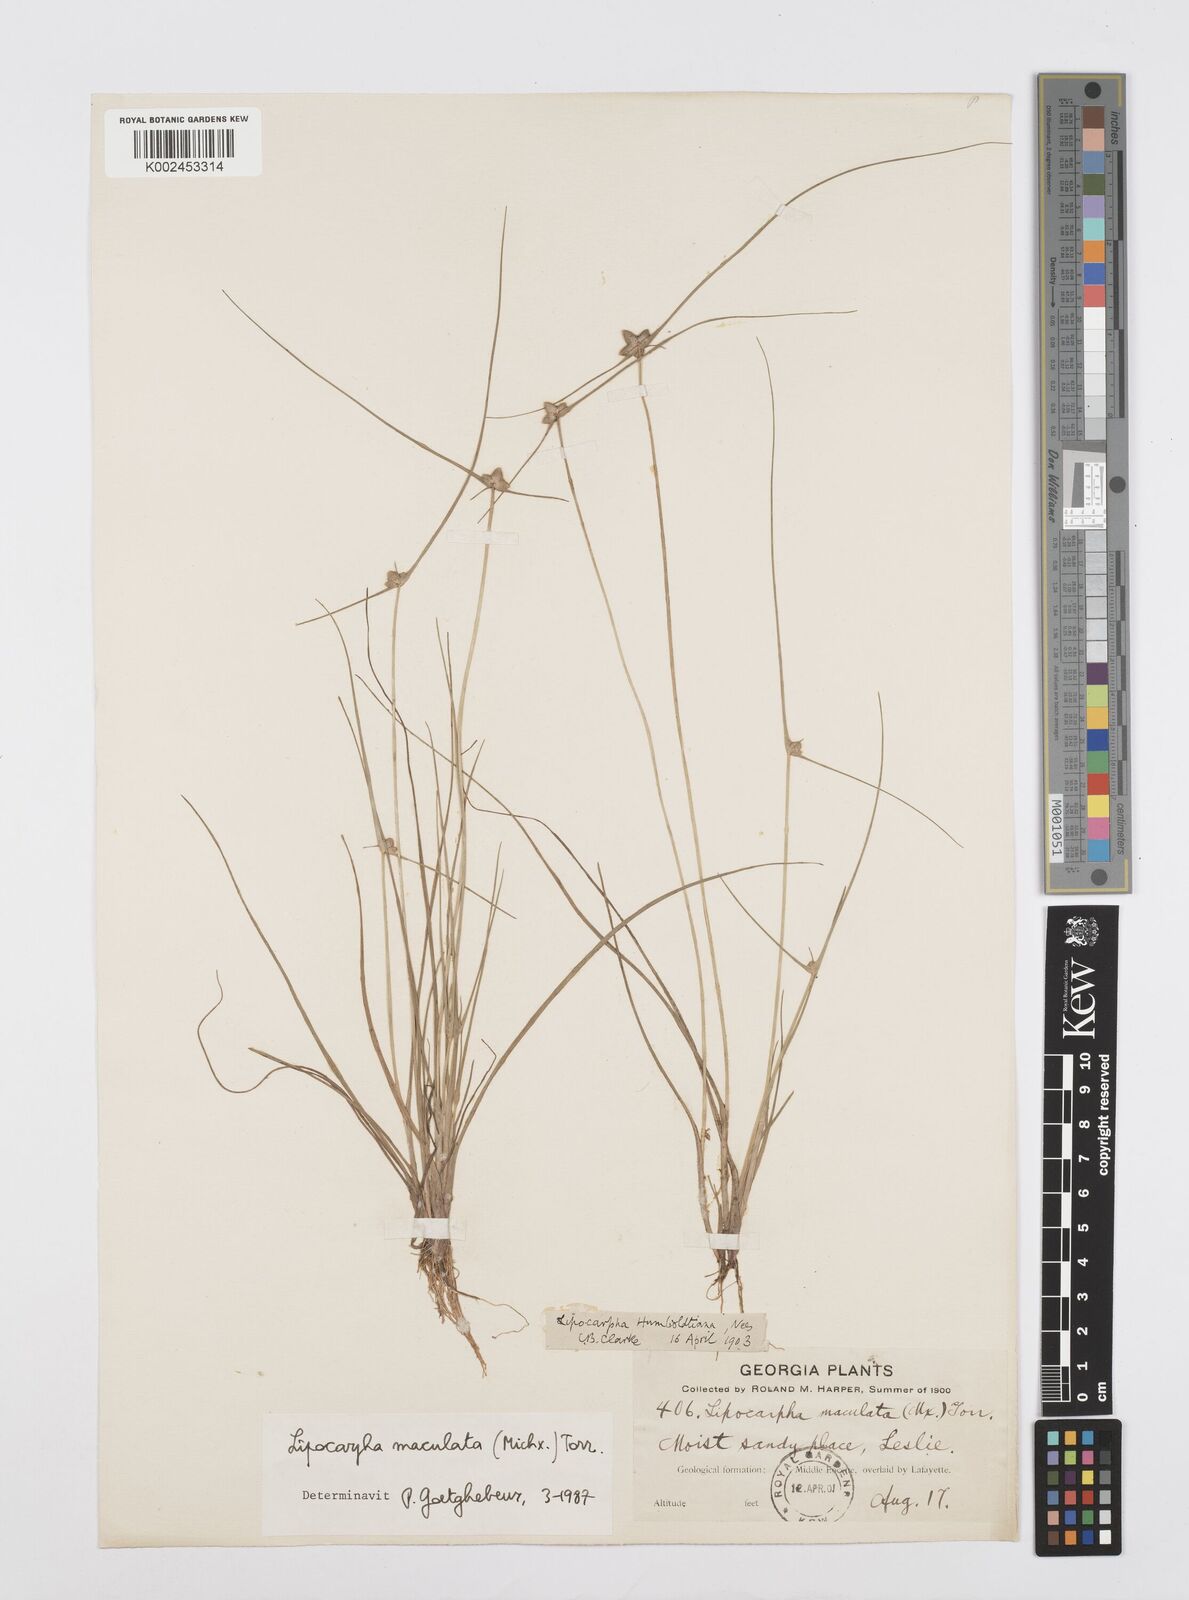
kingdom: Plantae
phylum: Tracheophyta
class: Liliopsida
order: Poales
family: Cyperaceae
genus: Cyperus
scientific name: Cyperus maculatus
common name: Maculated sedge
